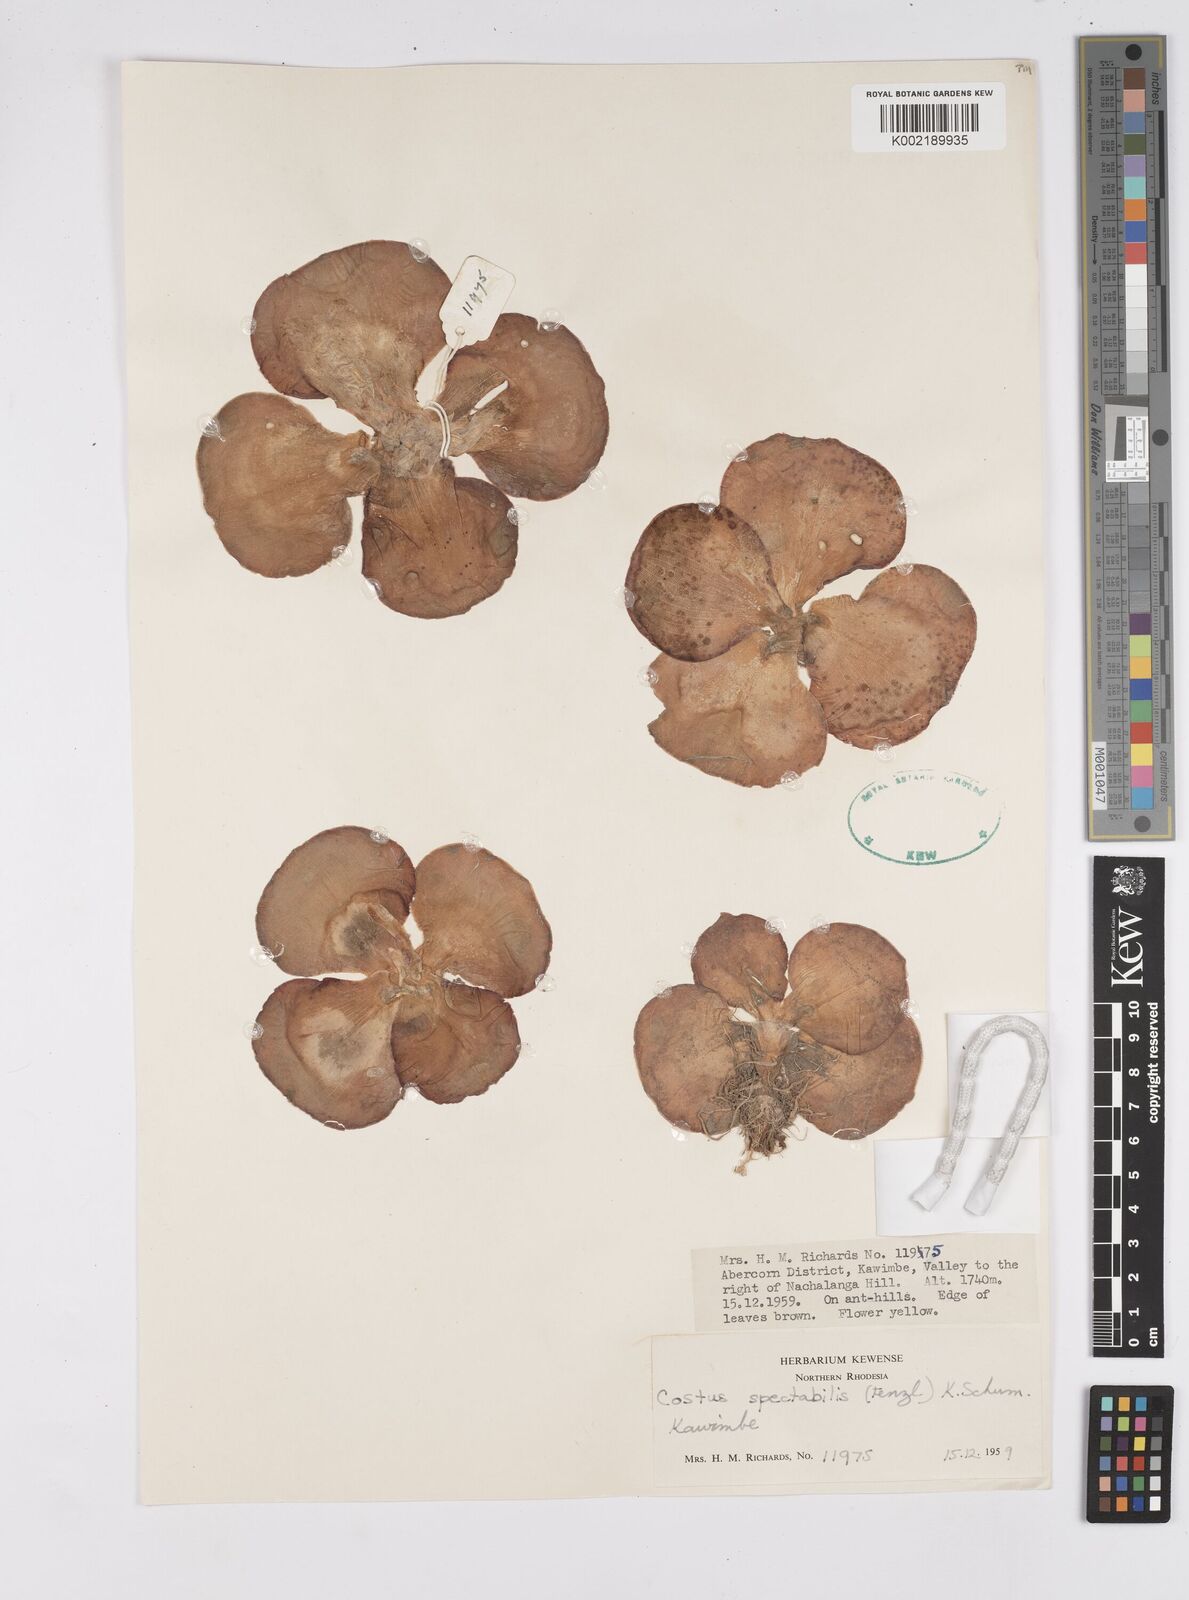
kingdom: Plantae
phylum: Tracheophyta
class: Liliopsida
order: Zingiberales
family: Costaceae
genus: Costus
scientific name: Costus spectabilis
